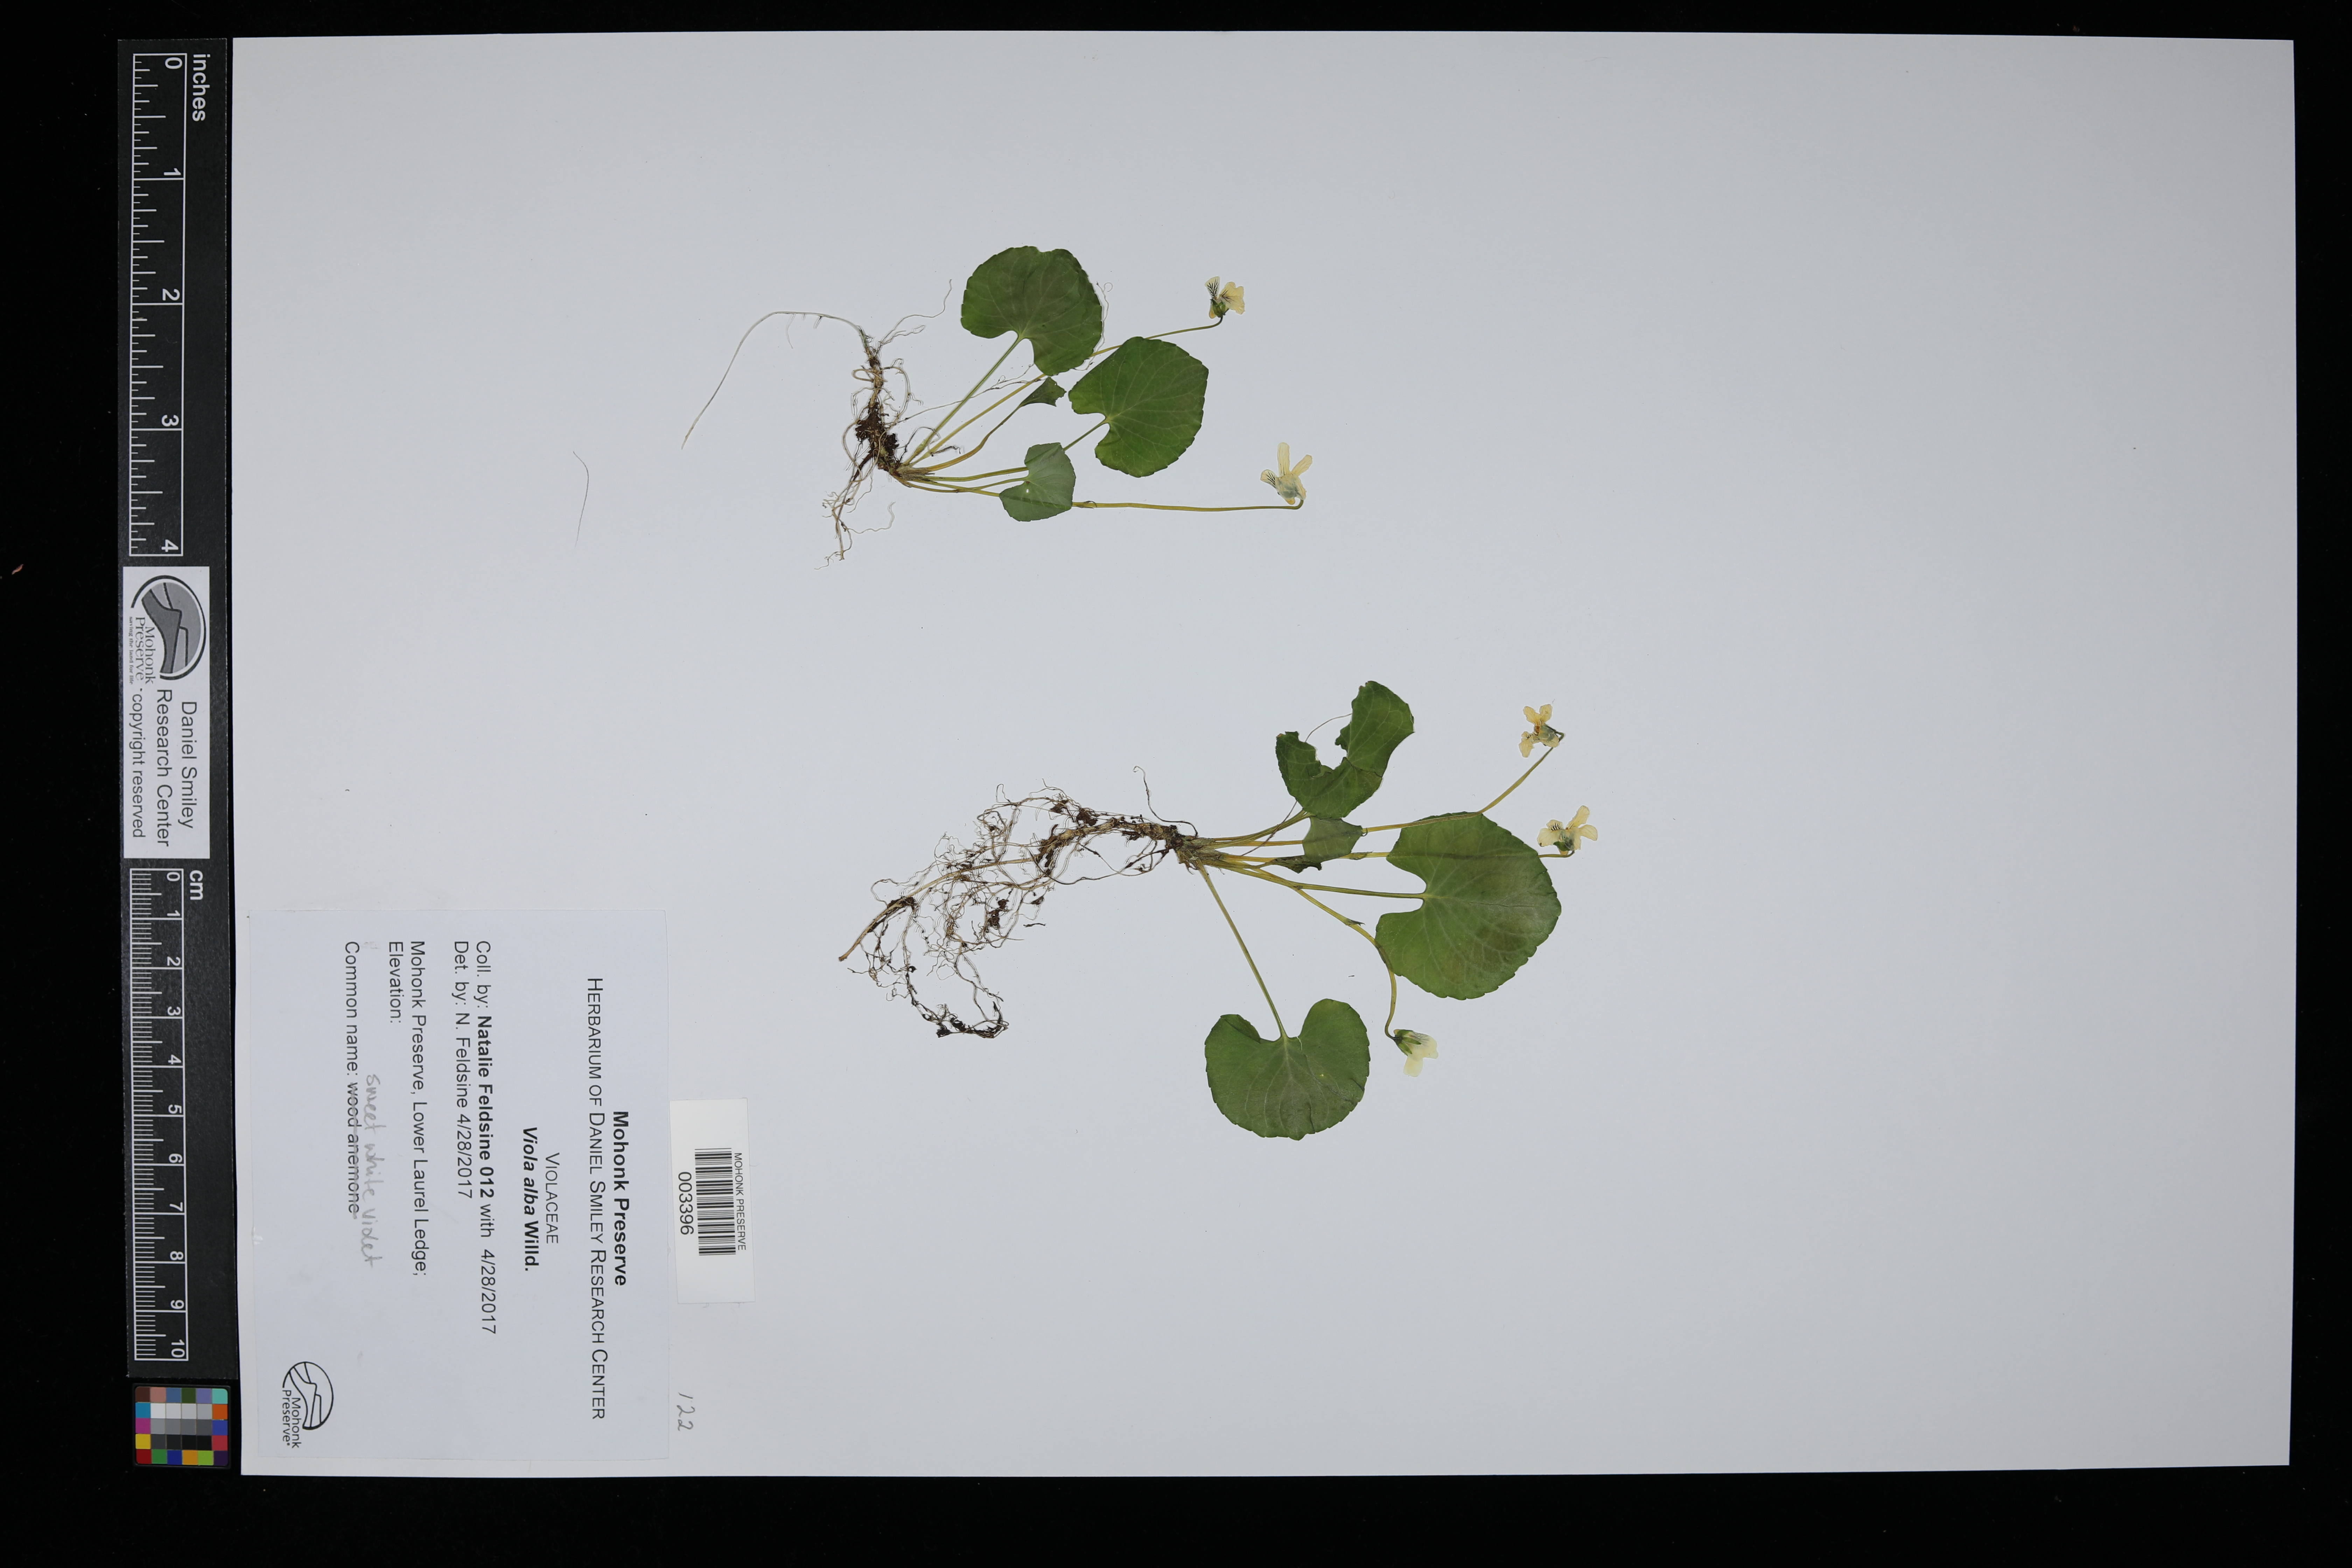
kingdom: Plantae
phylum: Tracheophyta
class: Magnoliopsida
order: Malpighiales
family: Violaceae
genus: Viola
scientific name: Viola alba
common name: White violet
